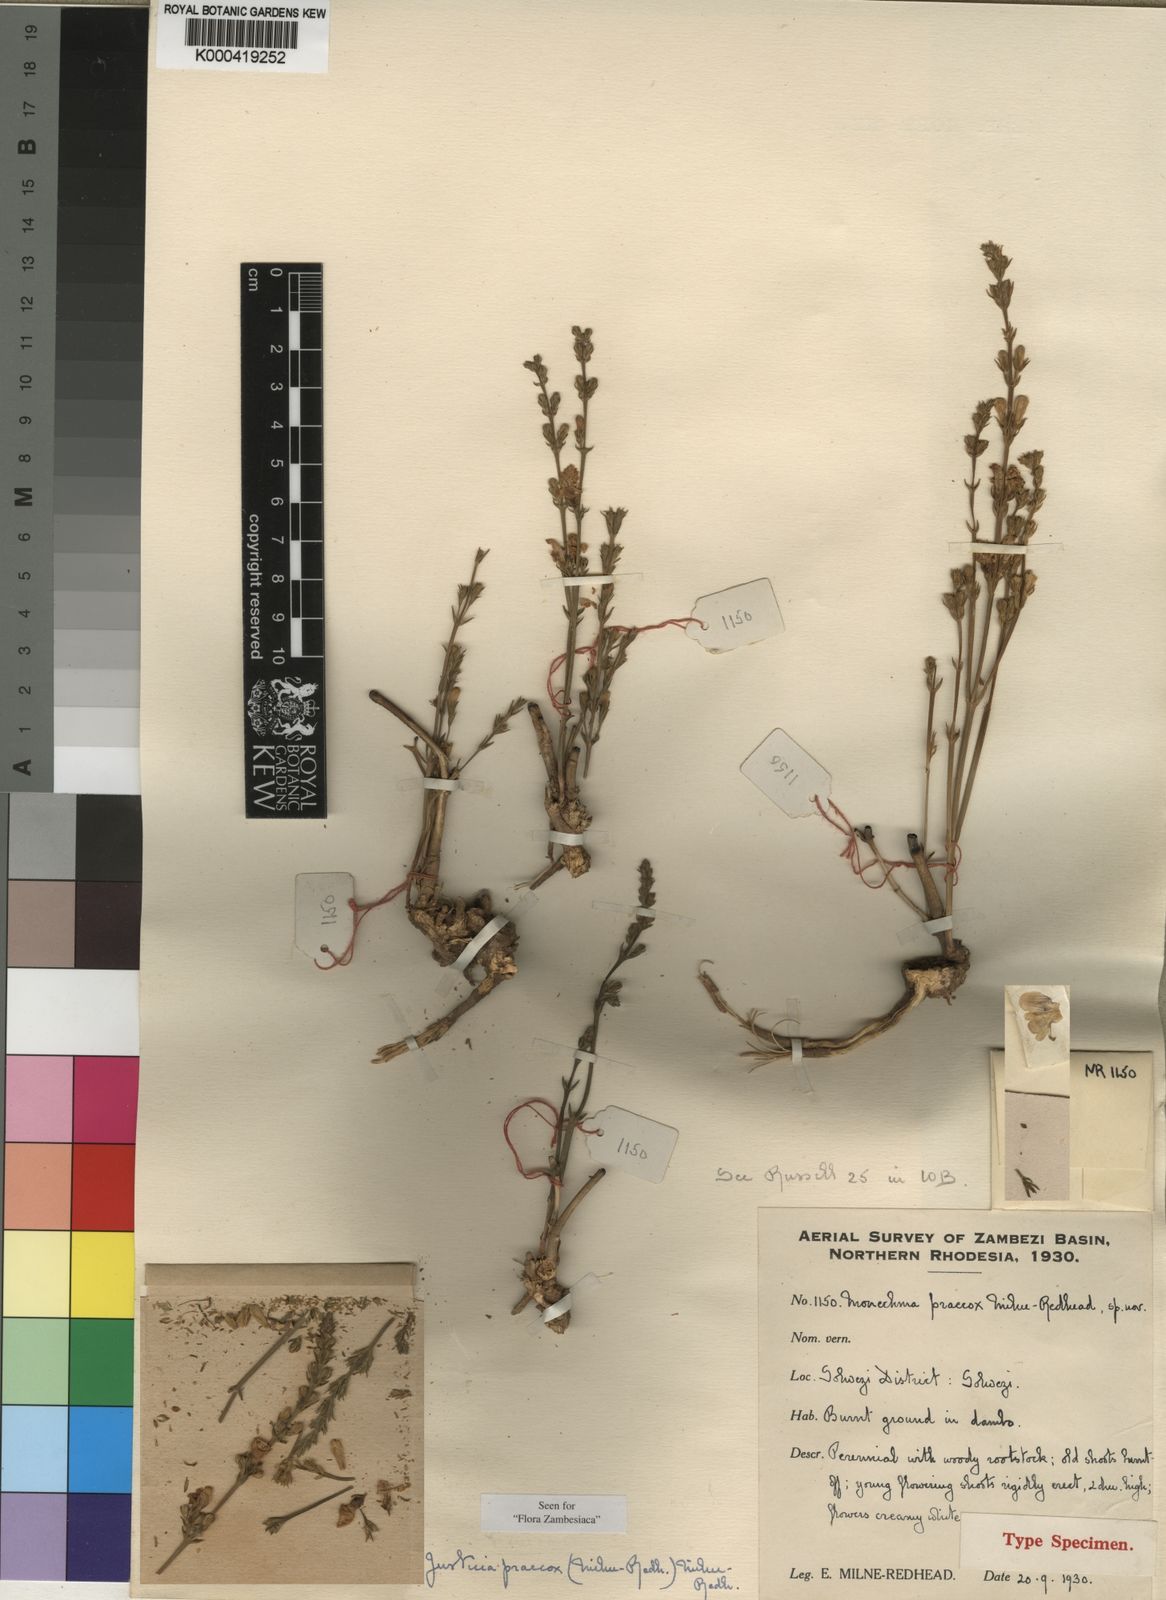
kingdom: Plantae
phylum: Tracheophyta
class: Magnoliopsida
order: Lamiales
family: Acanthaceae
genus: Justicia
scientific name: Justicia bequaertii
